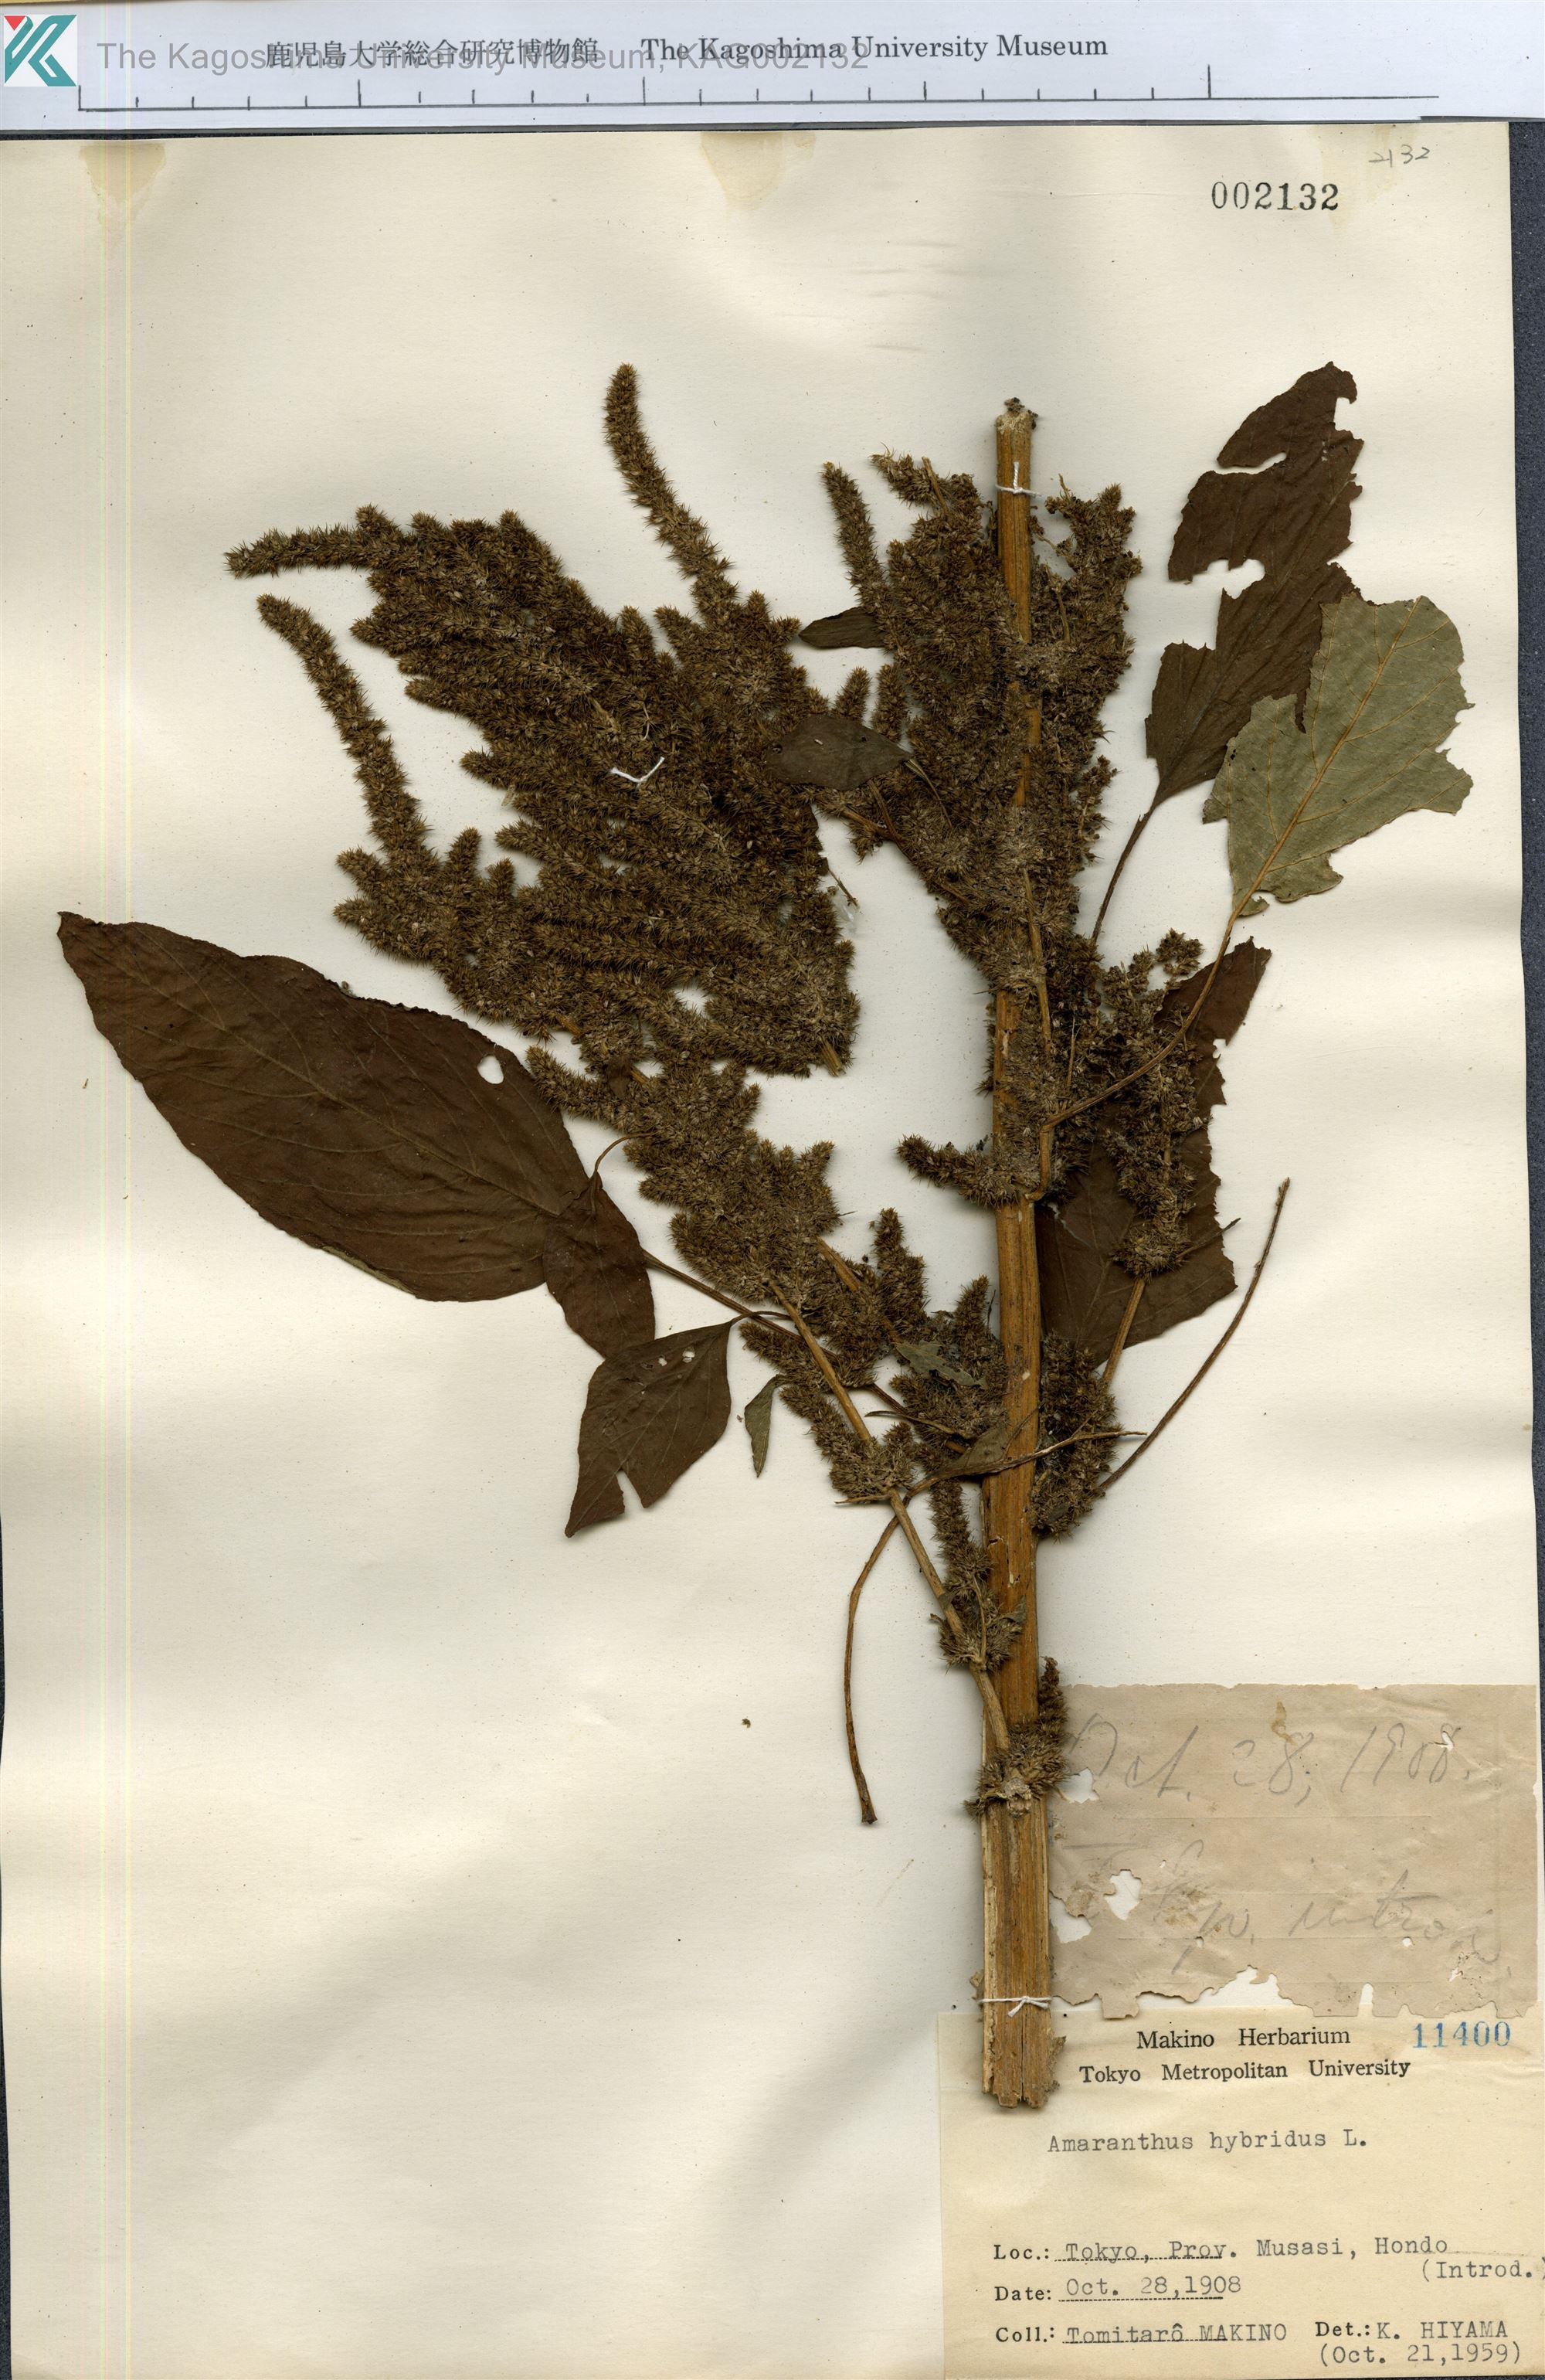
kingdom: Plantae
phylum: Tracheophyta
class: Magnoliopsida
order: Caryophyllales
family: Amaranthaceae
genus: Amaranthus
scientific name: Amaranthus hybridus
